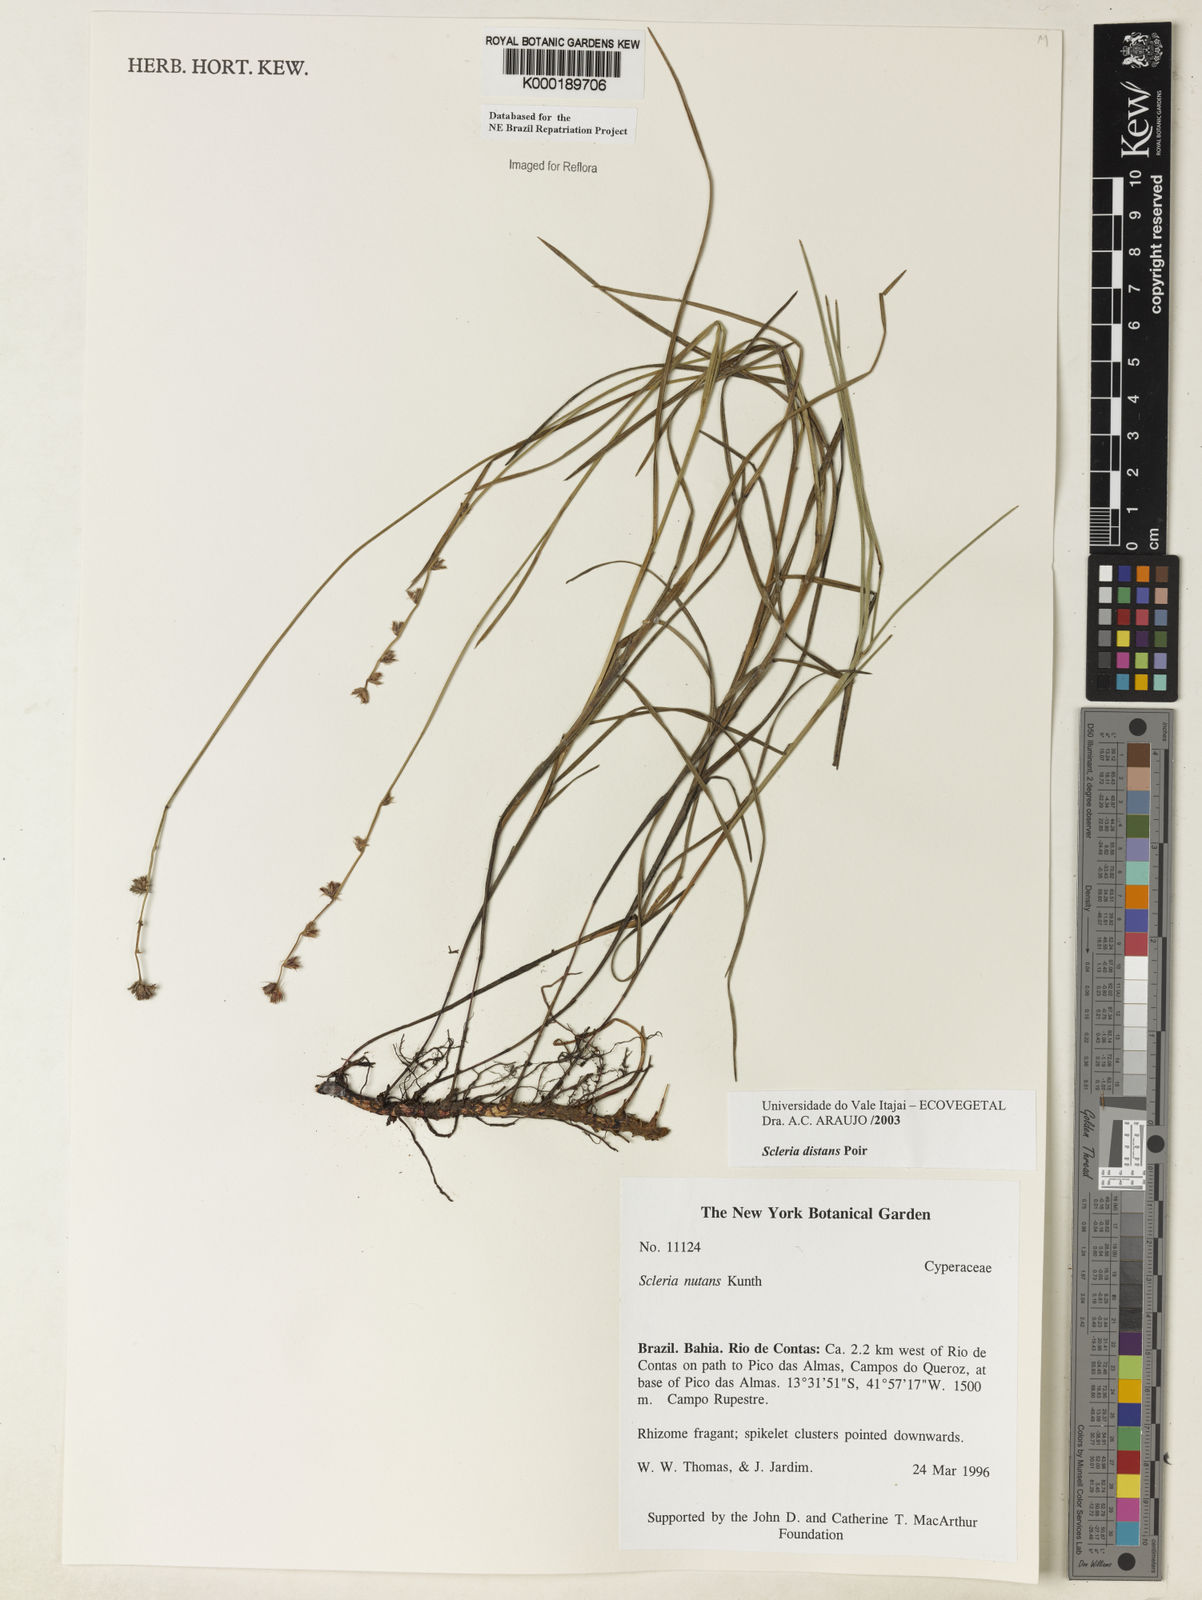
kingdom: Plantae
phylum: Tracheophyta
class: Liliopsida
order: Poales
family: Cyperaceae
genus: Scleria
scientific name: Scleria distans
